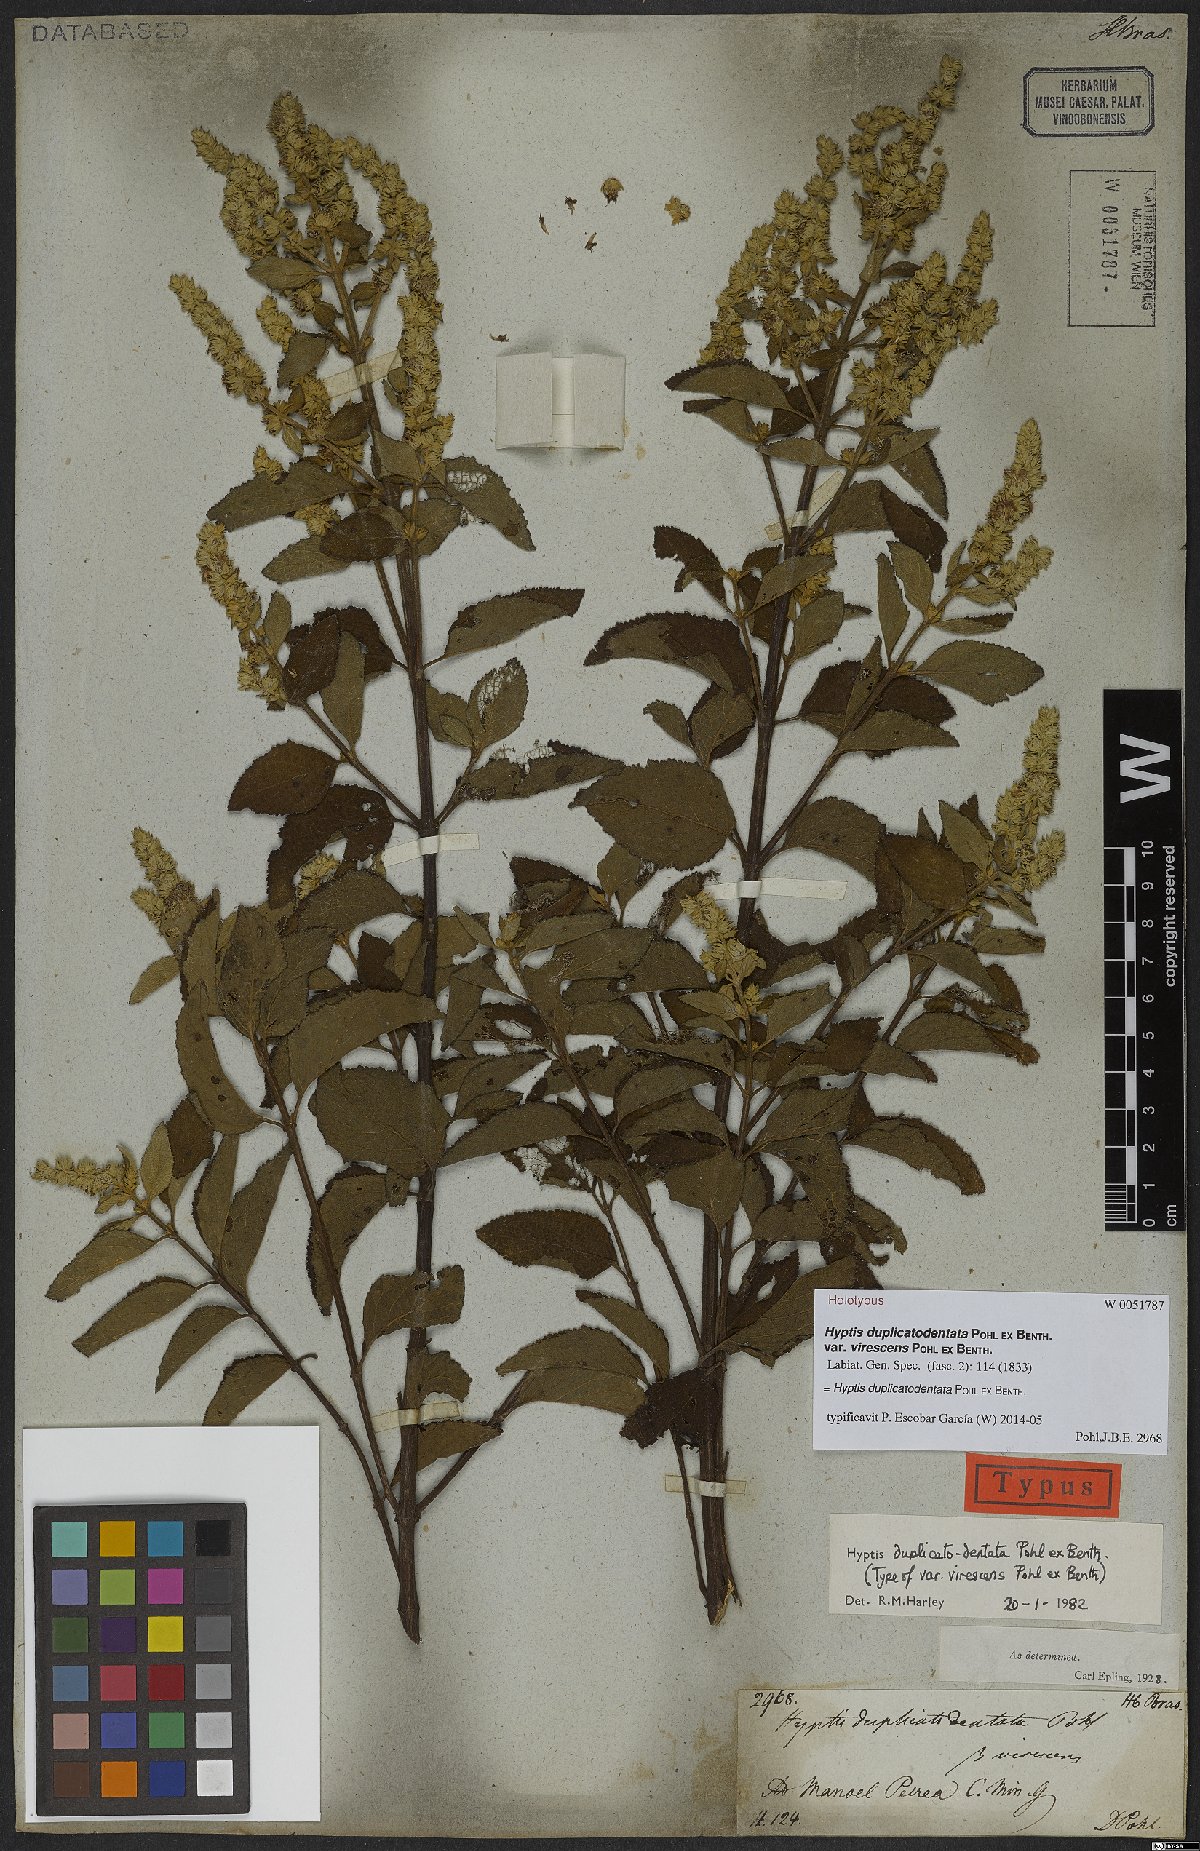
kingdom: Plantae
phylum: Tracheophyta
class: Magnoliopsida
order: Lamiales
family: Lamiaceae
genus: Cantinoa
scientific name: Cantinoa duplicatodentata
